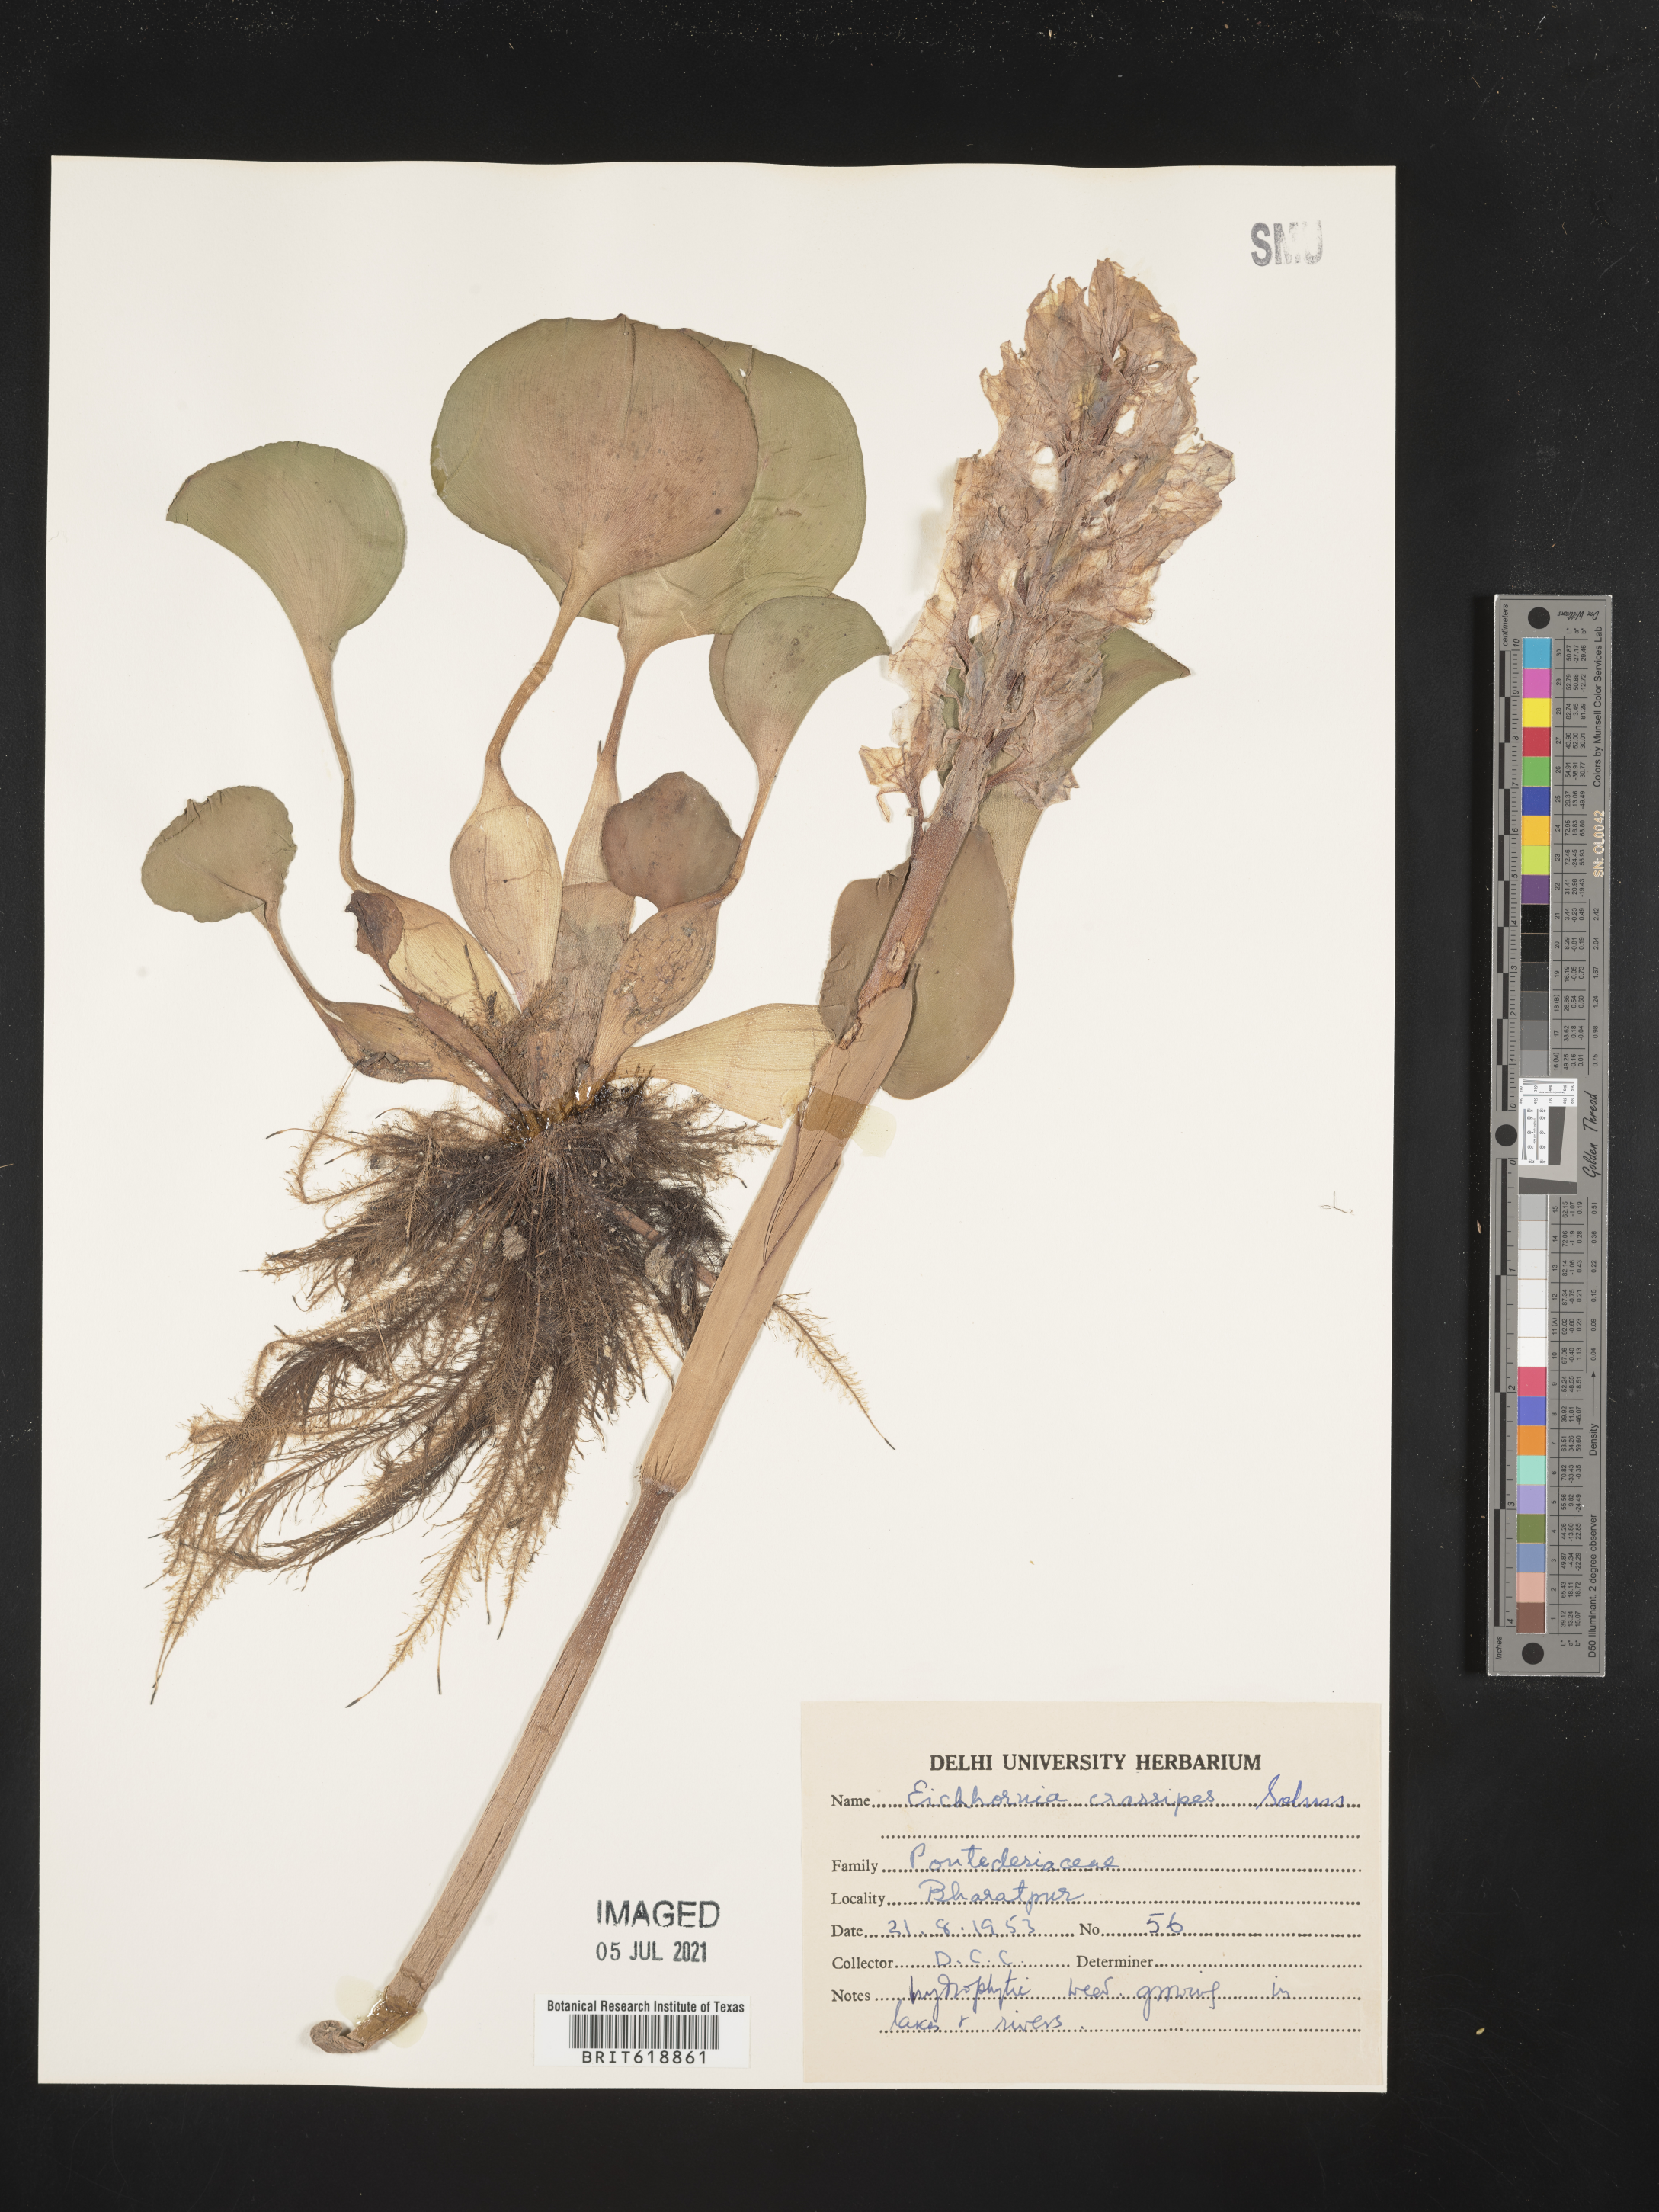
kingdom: Plantae
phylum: Tracheophyta
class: Liliopsida
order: Commelinales
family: Pontederiaceae
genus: Pontederia
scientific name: Pontederia crassipes
